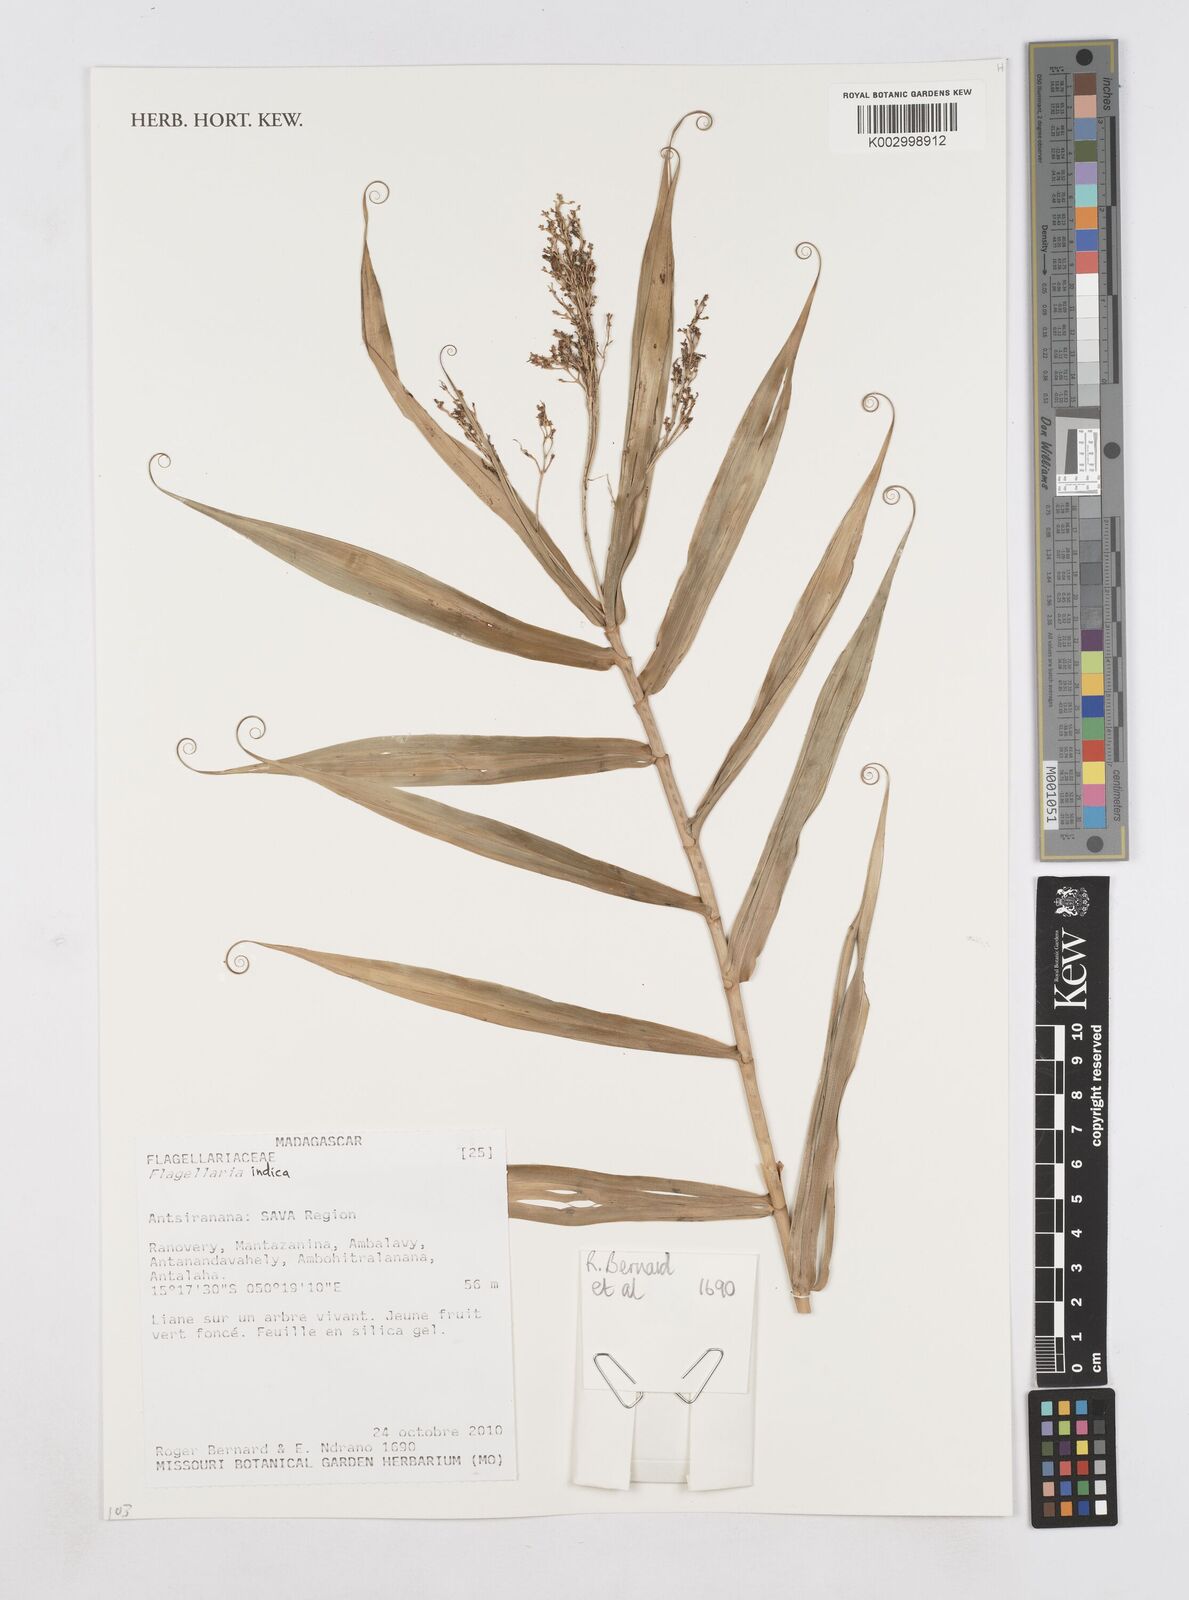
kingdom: Plantae
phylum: Tracheophyta
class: Liliopsida
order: Poales
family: Flagellariaceae
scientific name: Flagellariaceae
